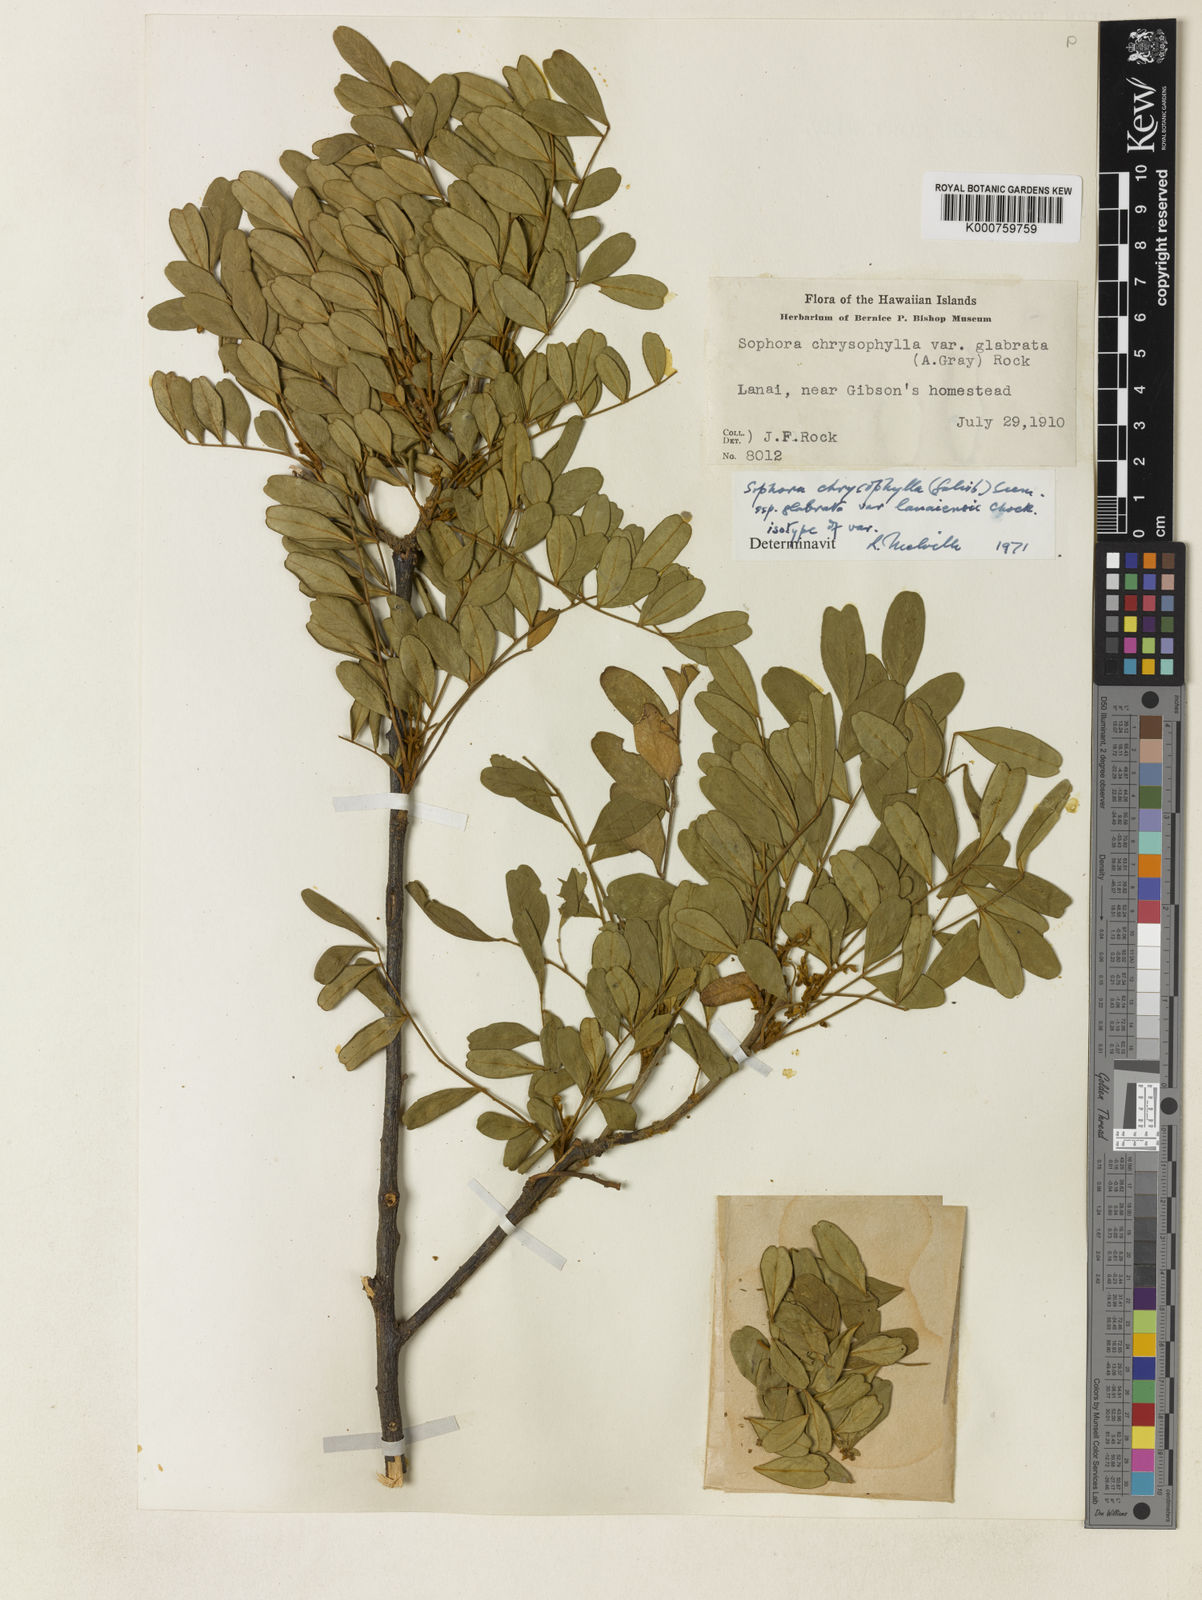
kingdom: Plantae
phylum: Tracheophyta
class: Magnoliopsida
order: Fabales
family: Fabaceae
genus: Sophora
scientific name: Sophora chrysophylla
